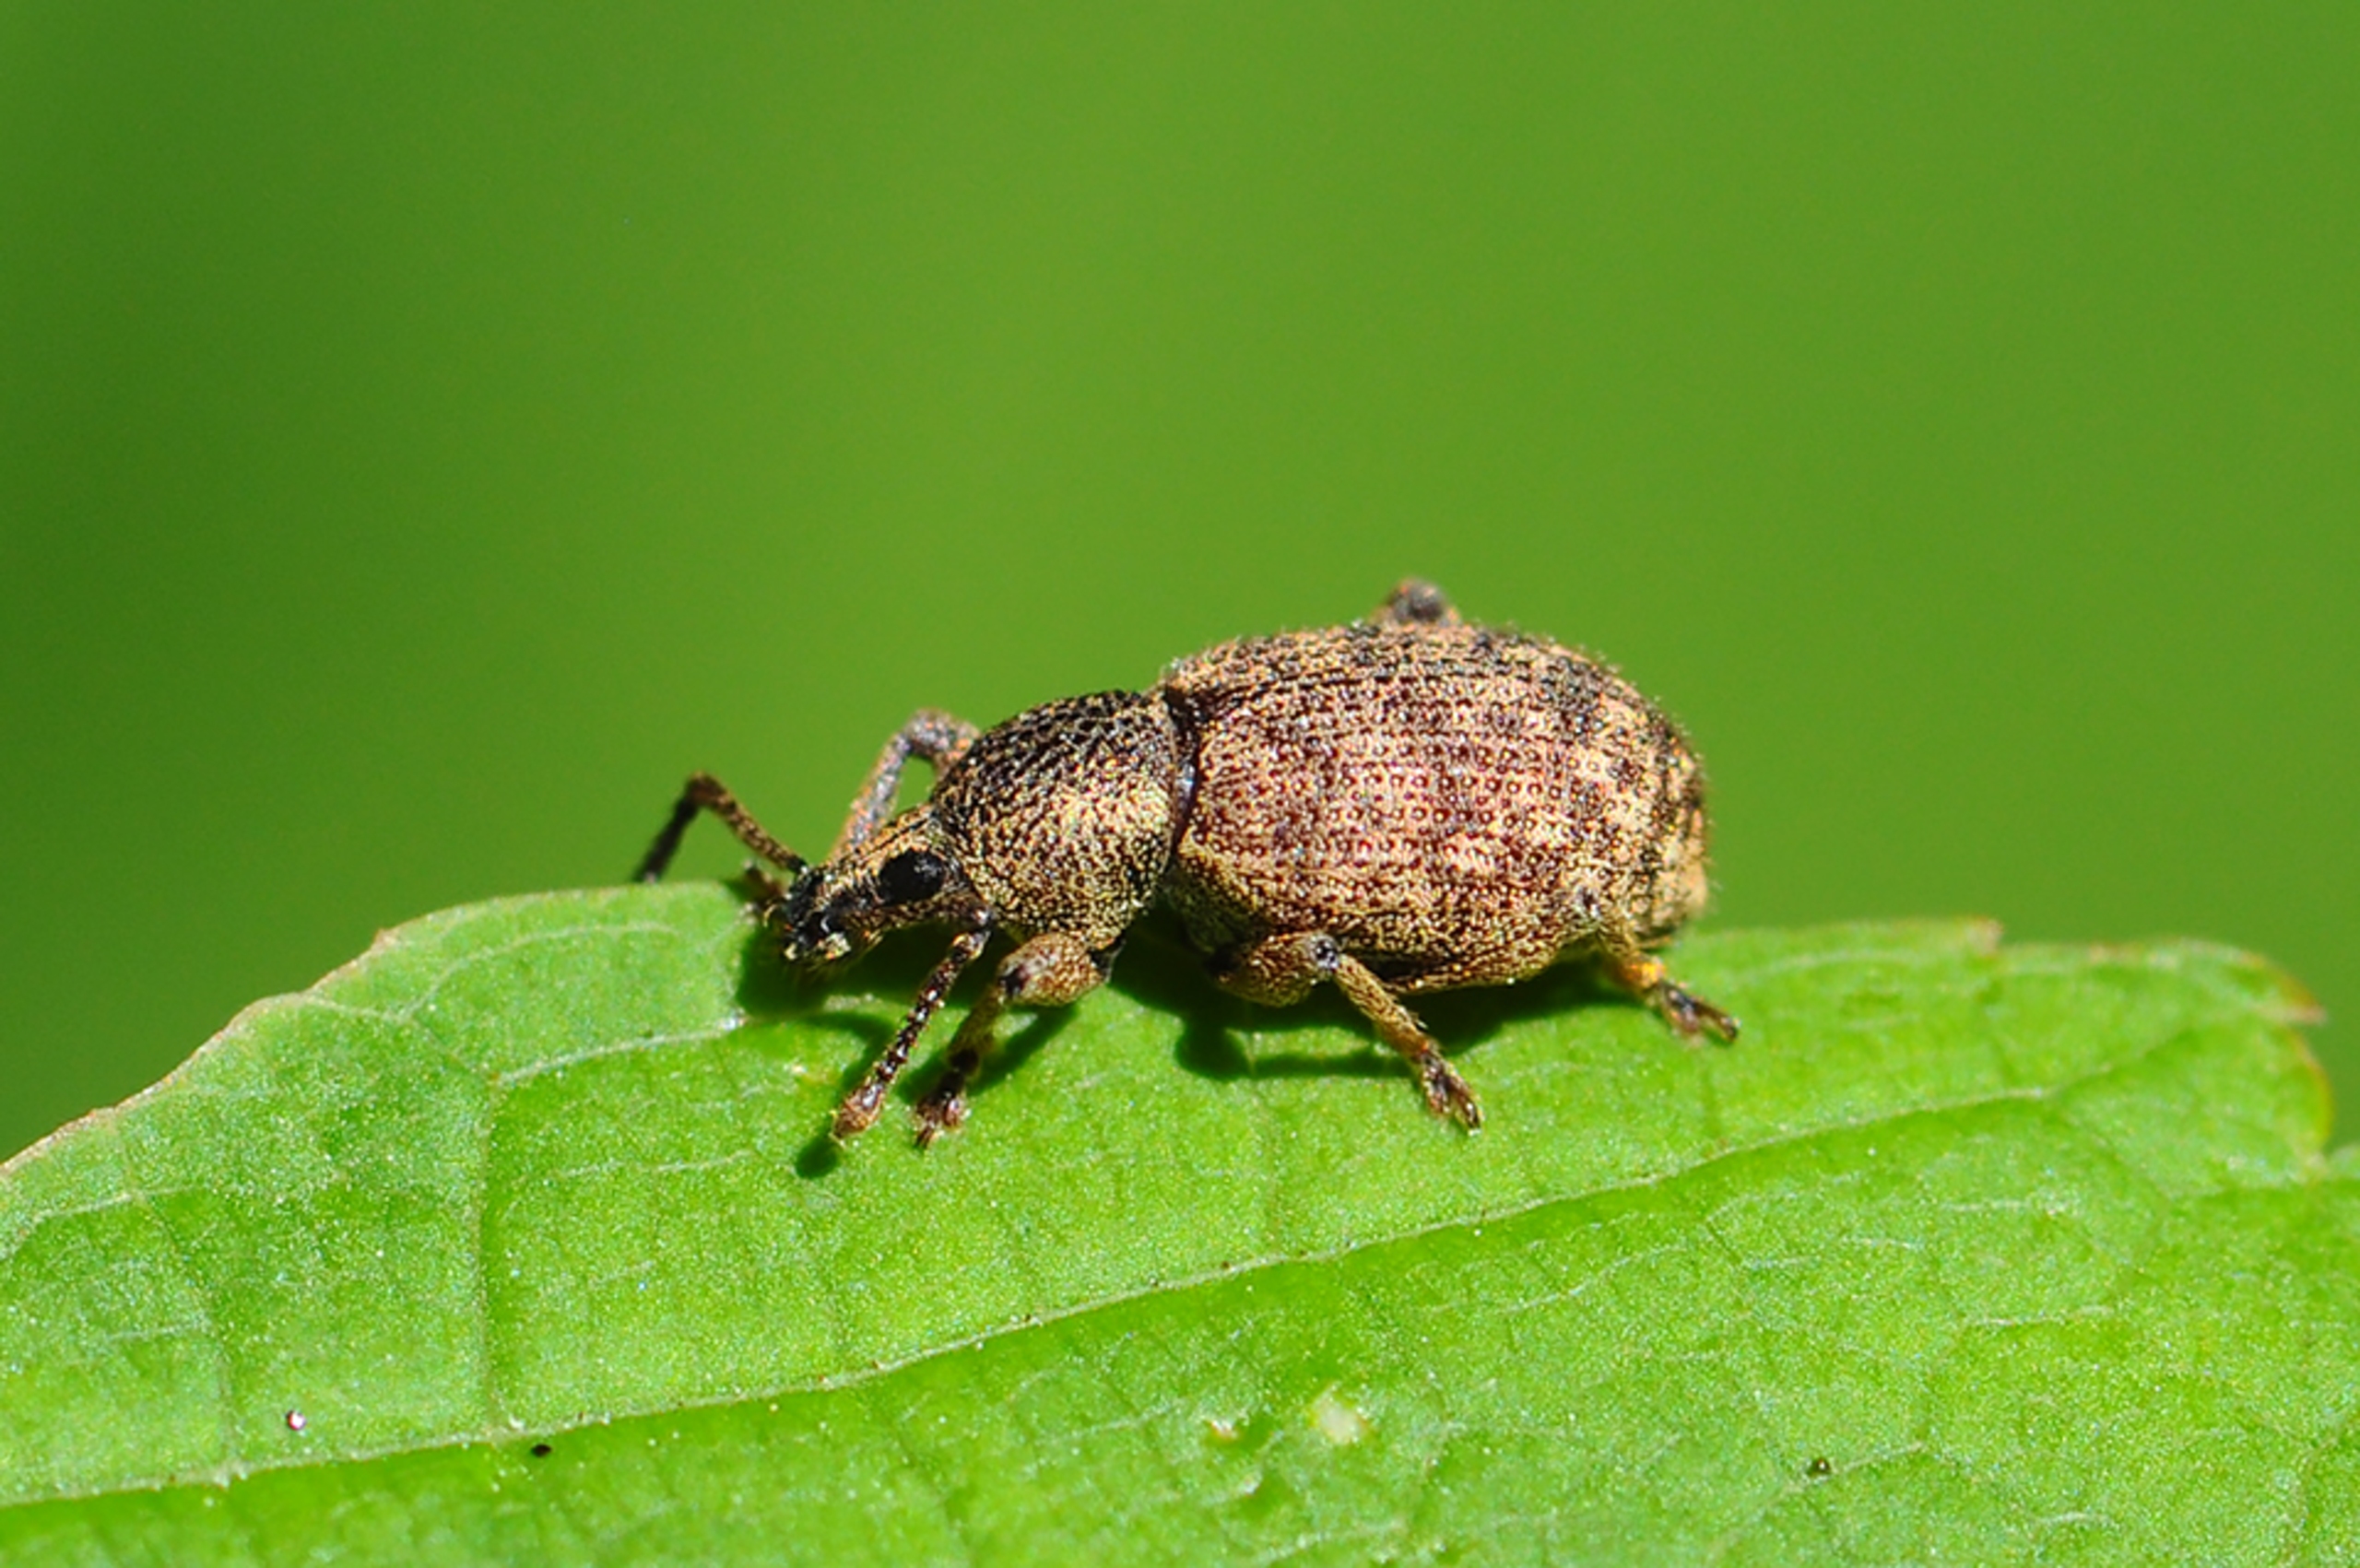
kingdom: Animalia
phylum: Arthropoda
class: Insecta
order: Coleoptera
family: Curculionidae
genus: Otiorhynchus
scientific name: Otiorhynchus singularis
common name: Barkøresnudebille
